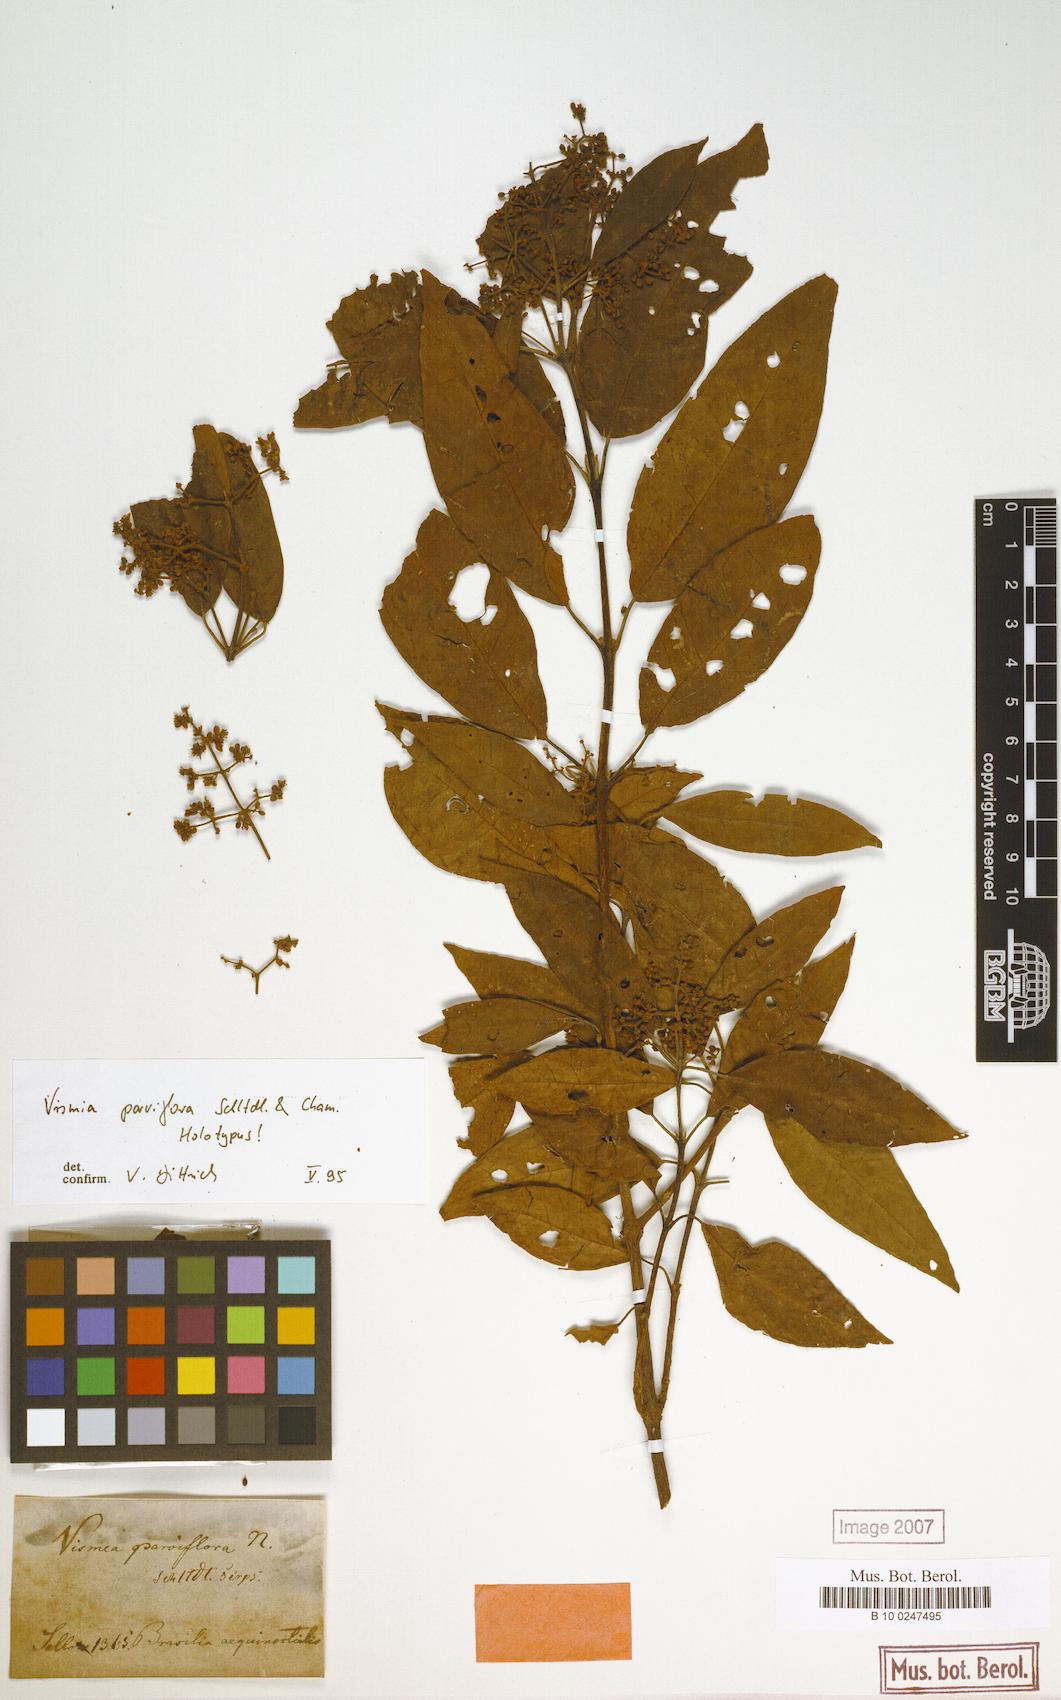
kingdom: Plantae
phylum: Tracheophyta
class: Magnoliopsida
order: Malpighiales
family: Hypericaceae
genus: Vismia
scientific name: Vismia parviflora
